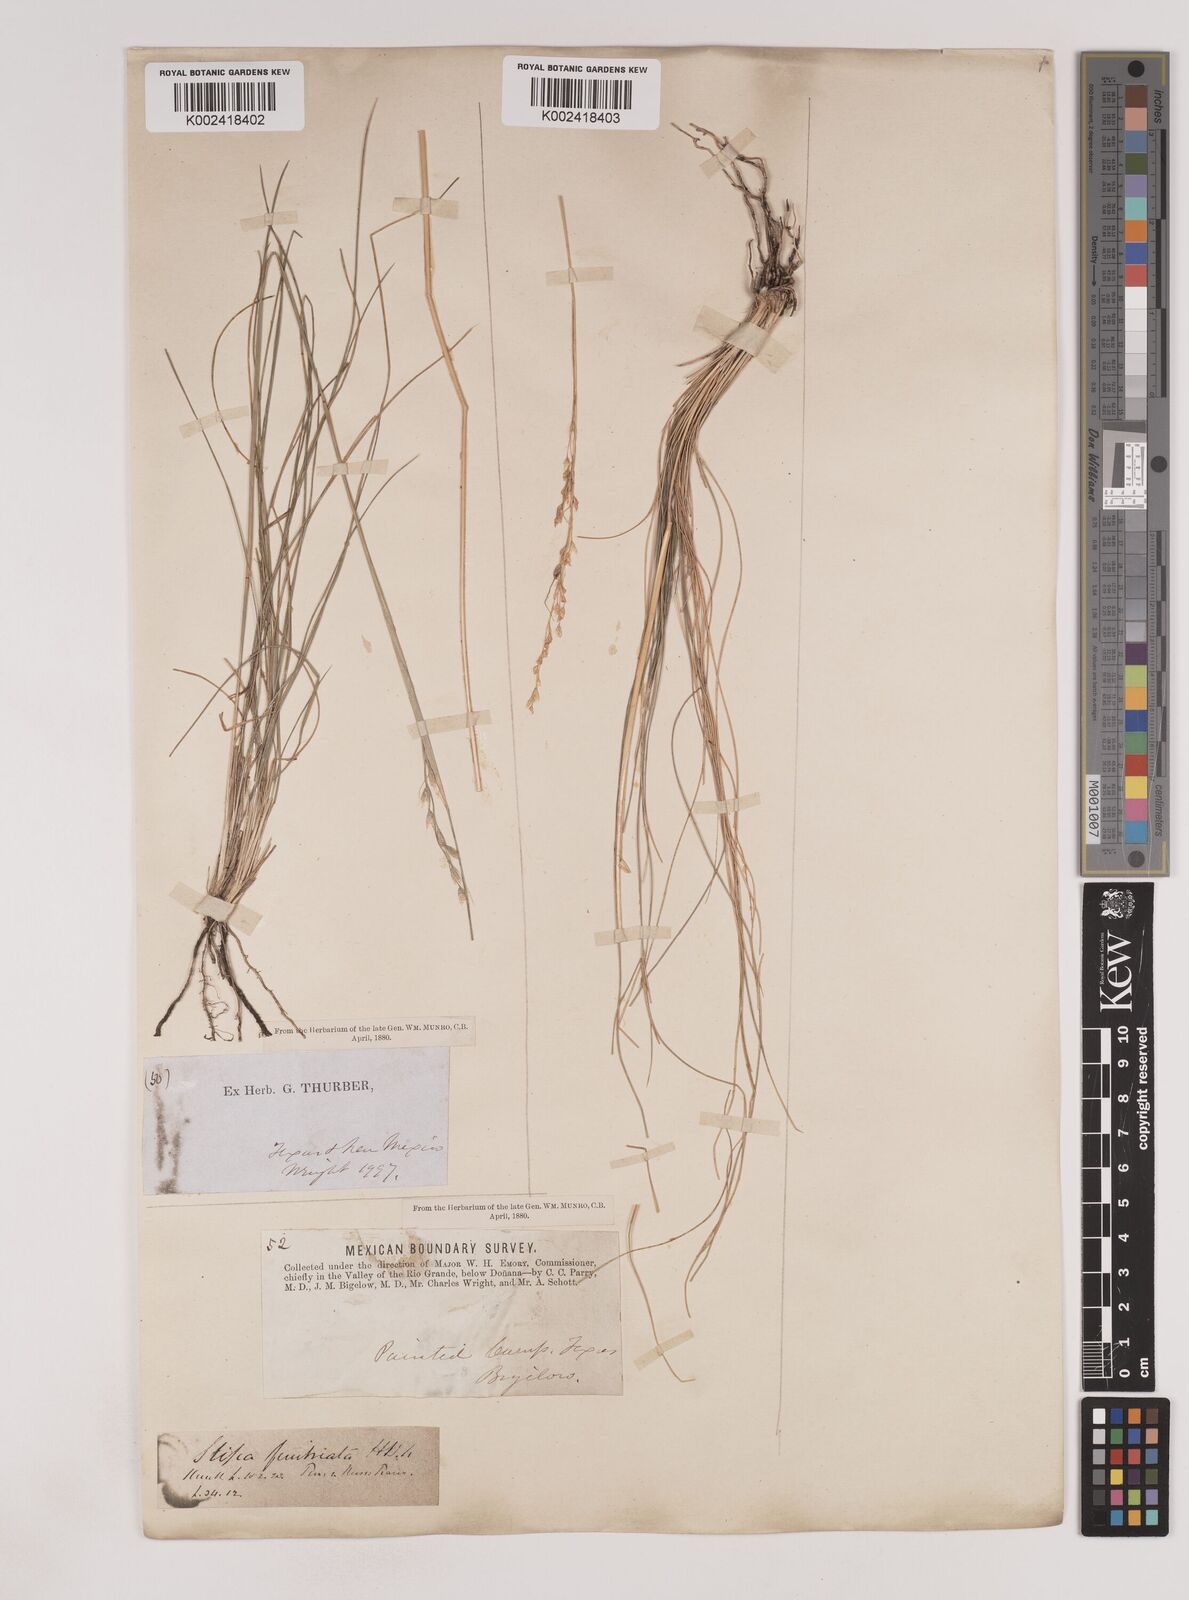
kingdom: Plantae
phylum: Tracheophyta
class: Liliopsida
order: Poales
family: Poaceae
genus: Piptochaetium
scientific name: Piptochaetium fimbriatum
